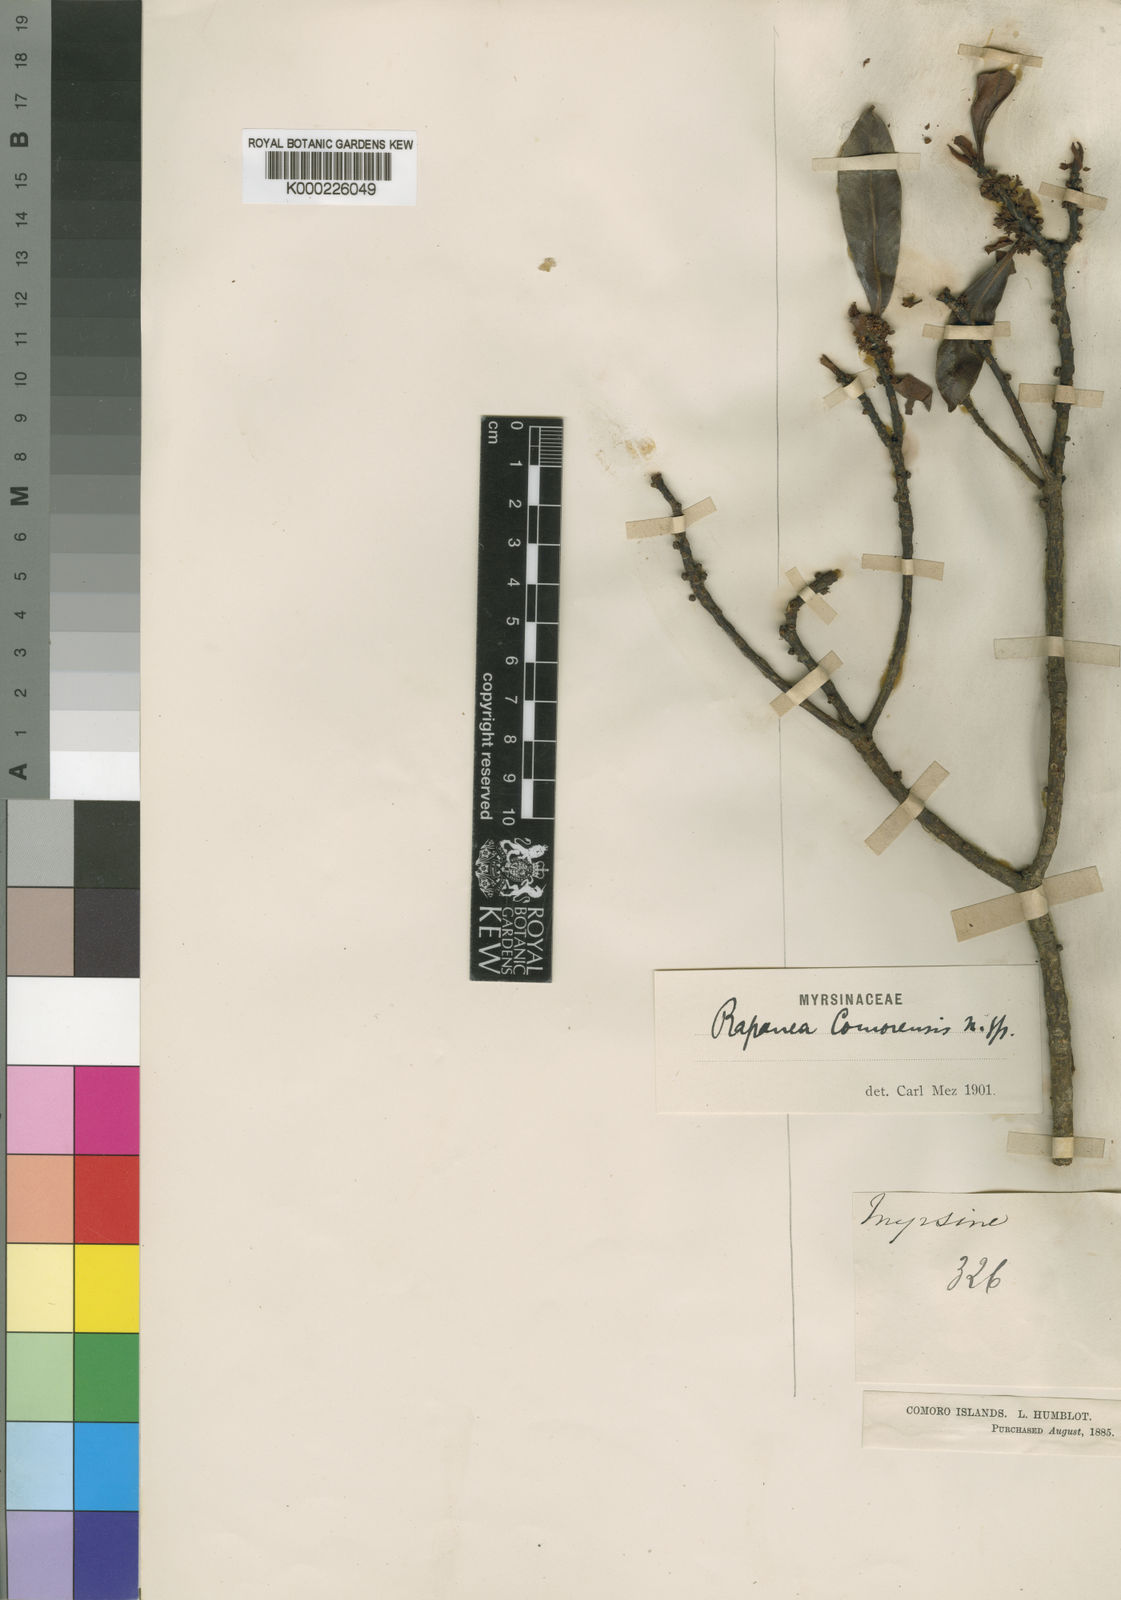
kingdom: Plantae
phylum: Tracheophyta
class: Magnoliopsida
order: Ericales
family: Primulaceae
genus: Myrsine
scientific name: Myrsine comorensis
